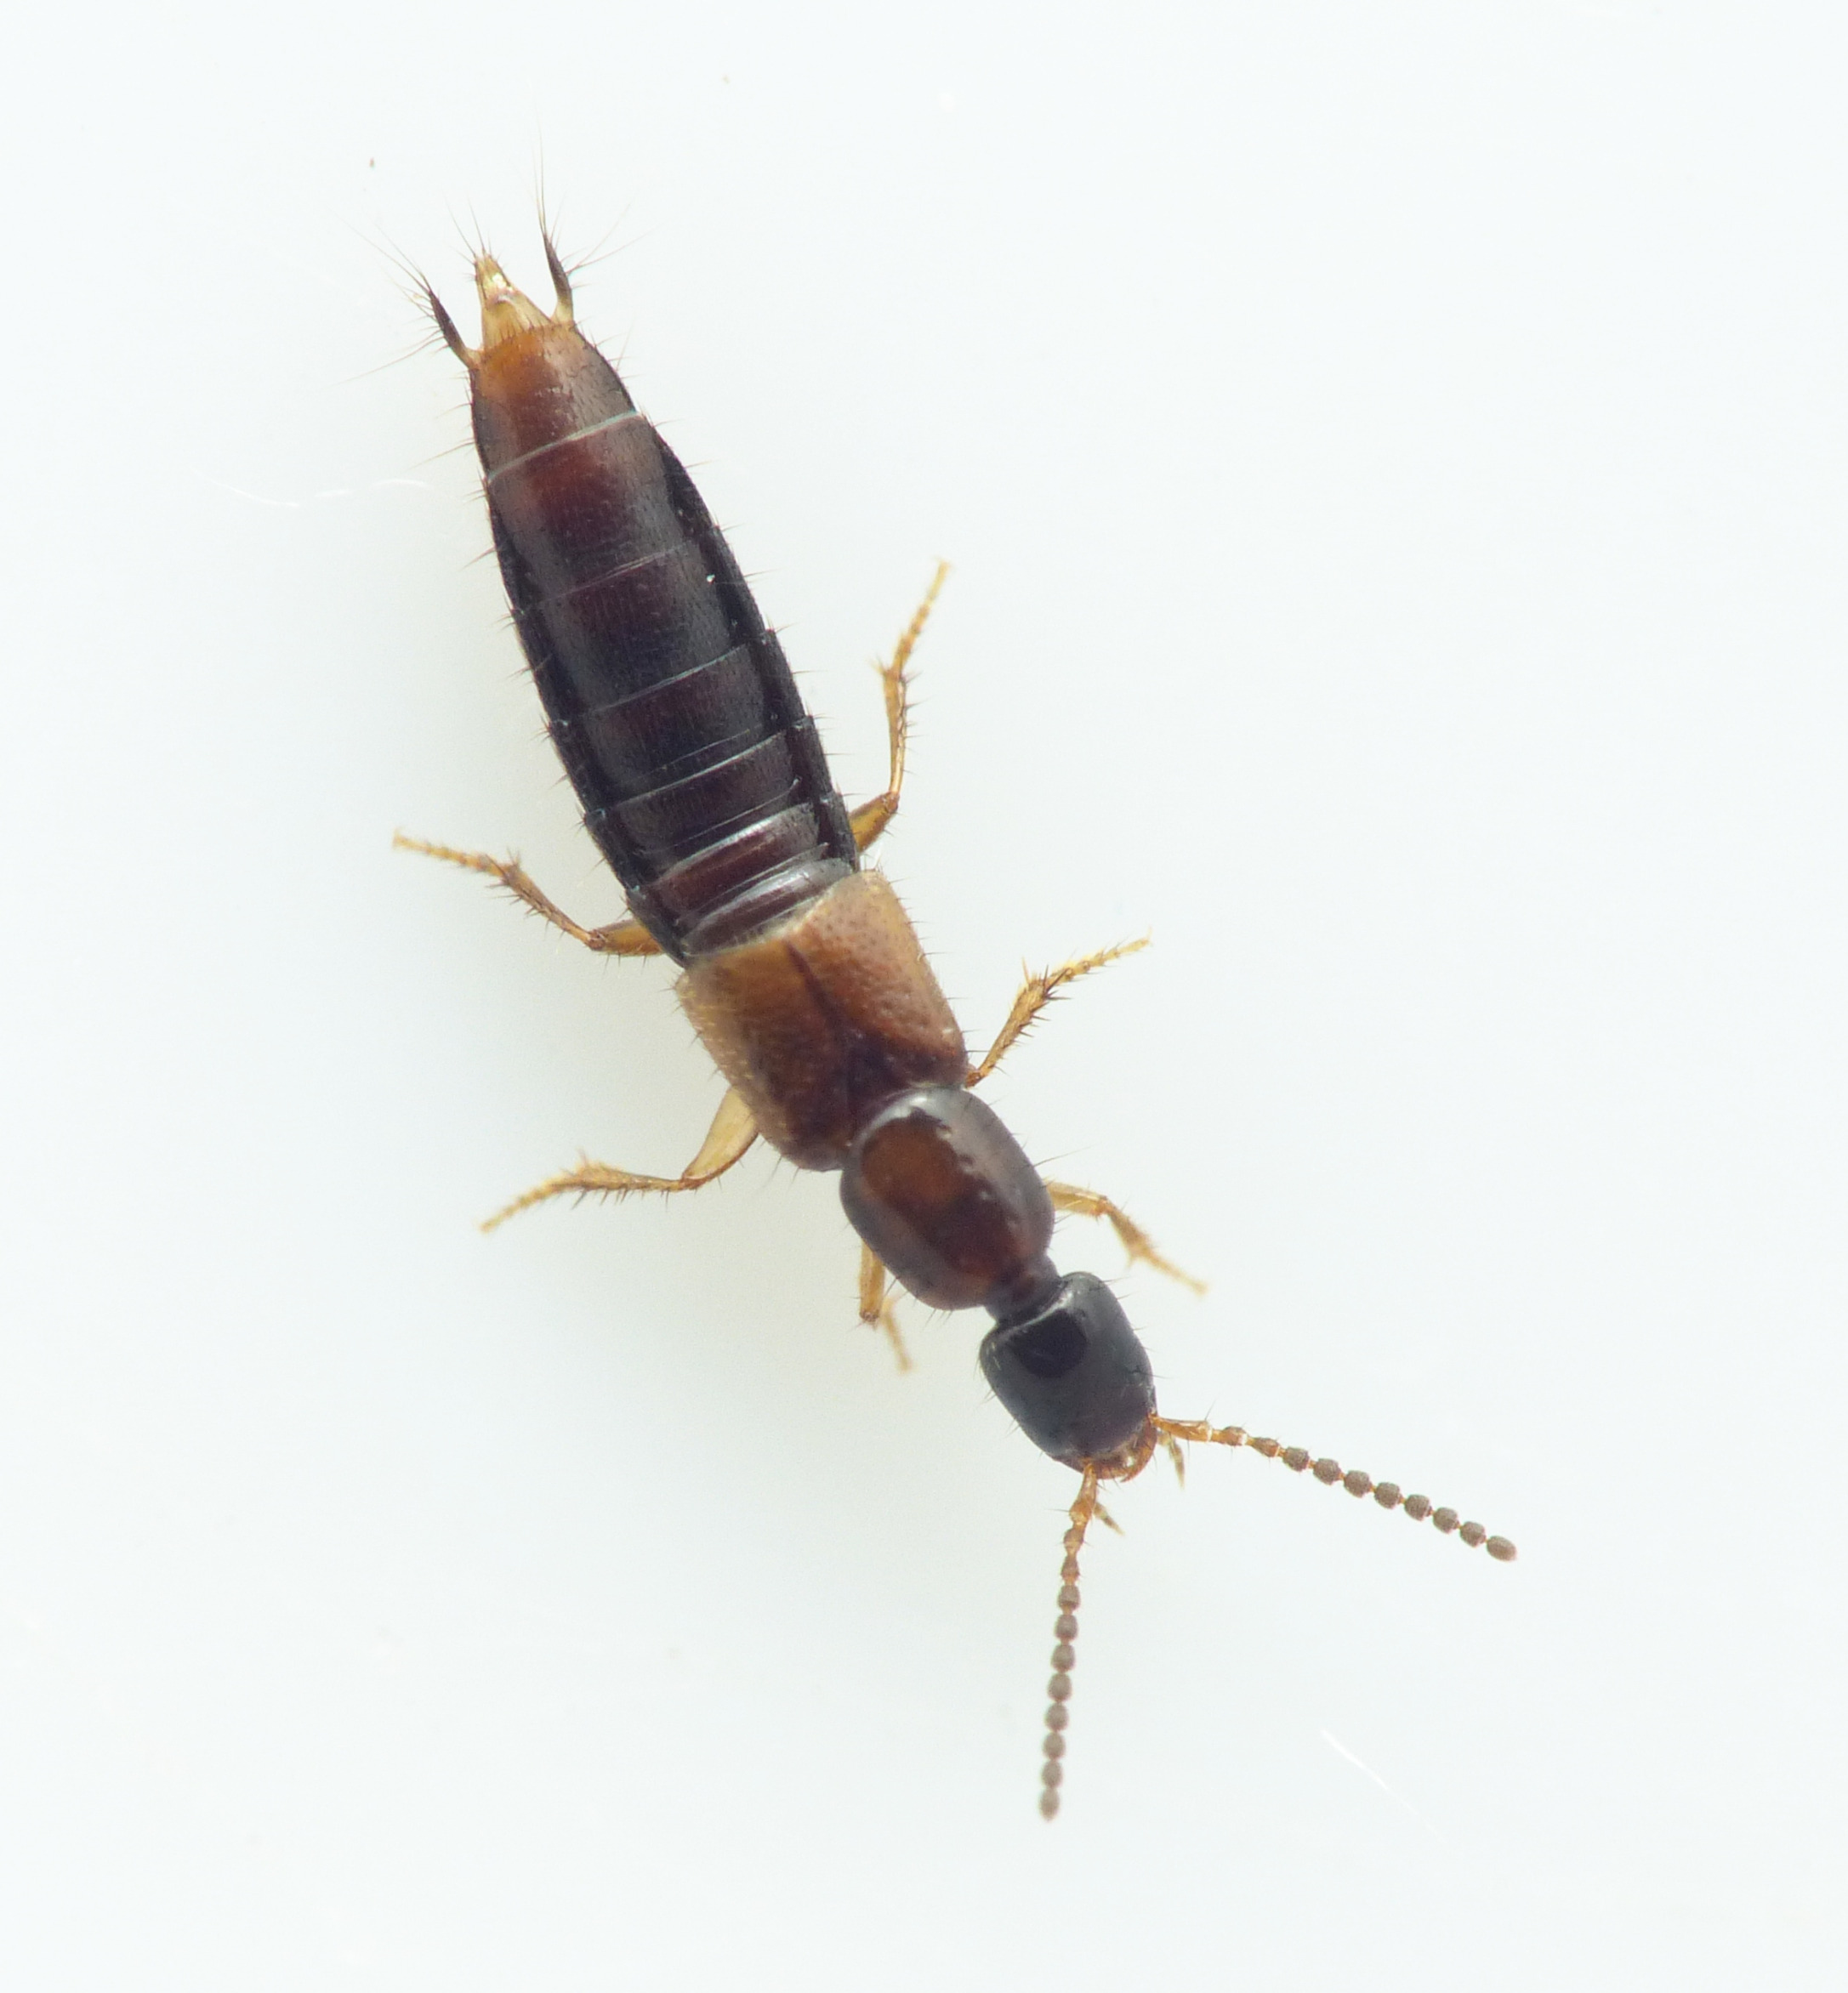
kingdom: Animalia
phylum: Arthropoda
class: Insecta
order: Coleoptera
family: Staphylinidae
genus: Gabronthus
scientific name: Gabronthus thermarum
